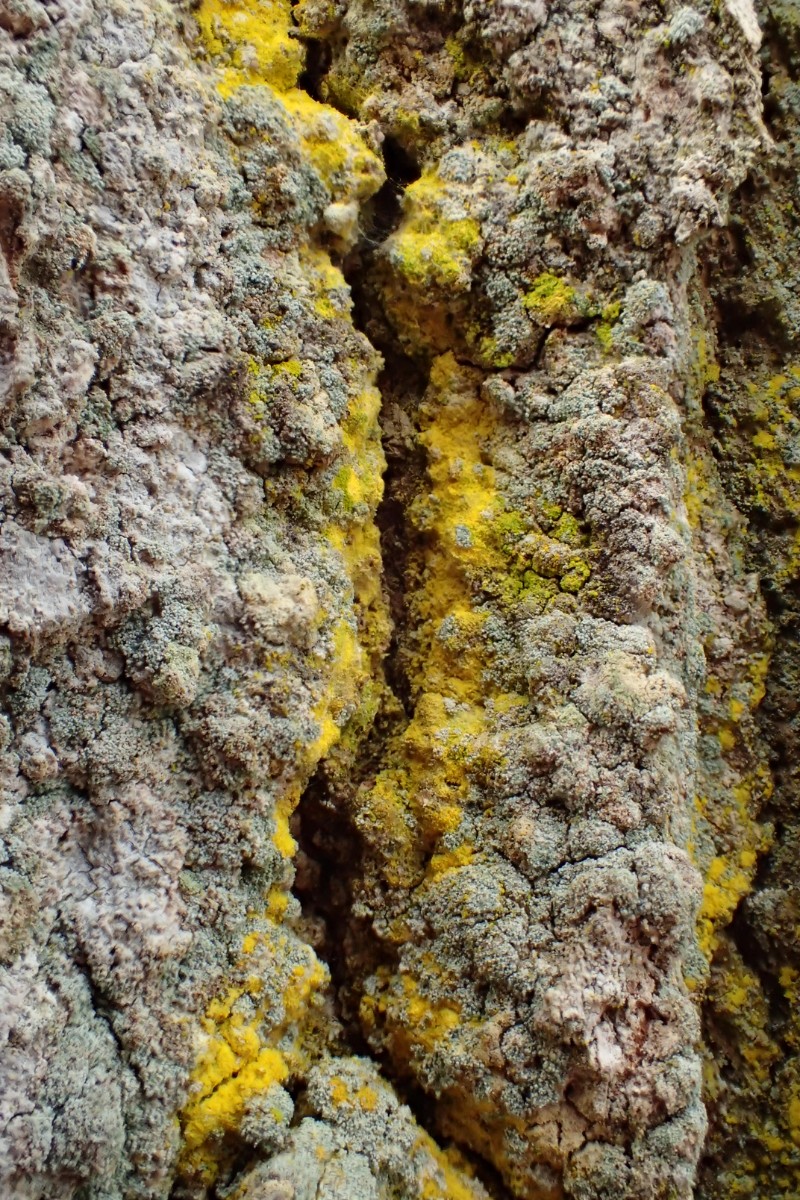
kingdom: Fungi
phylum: Ascomycota
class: Arthoniomycetes
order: Arthoniales
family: Chrysotrichaceae
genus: Chrysothrix
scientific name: Chrysothrix candelaris
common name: gul støvlav
